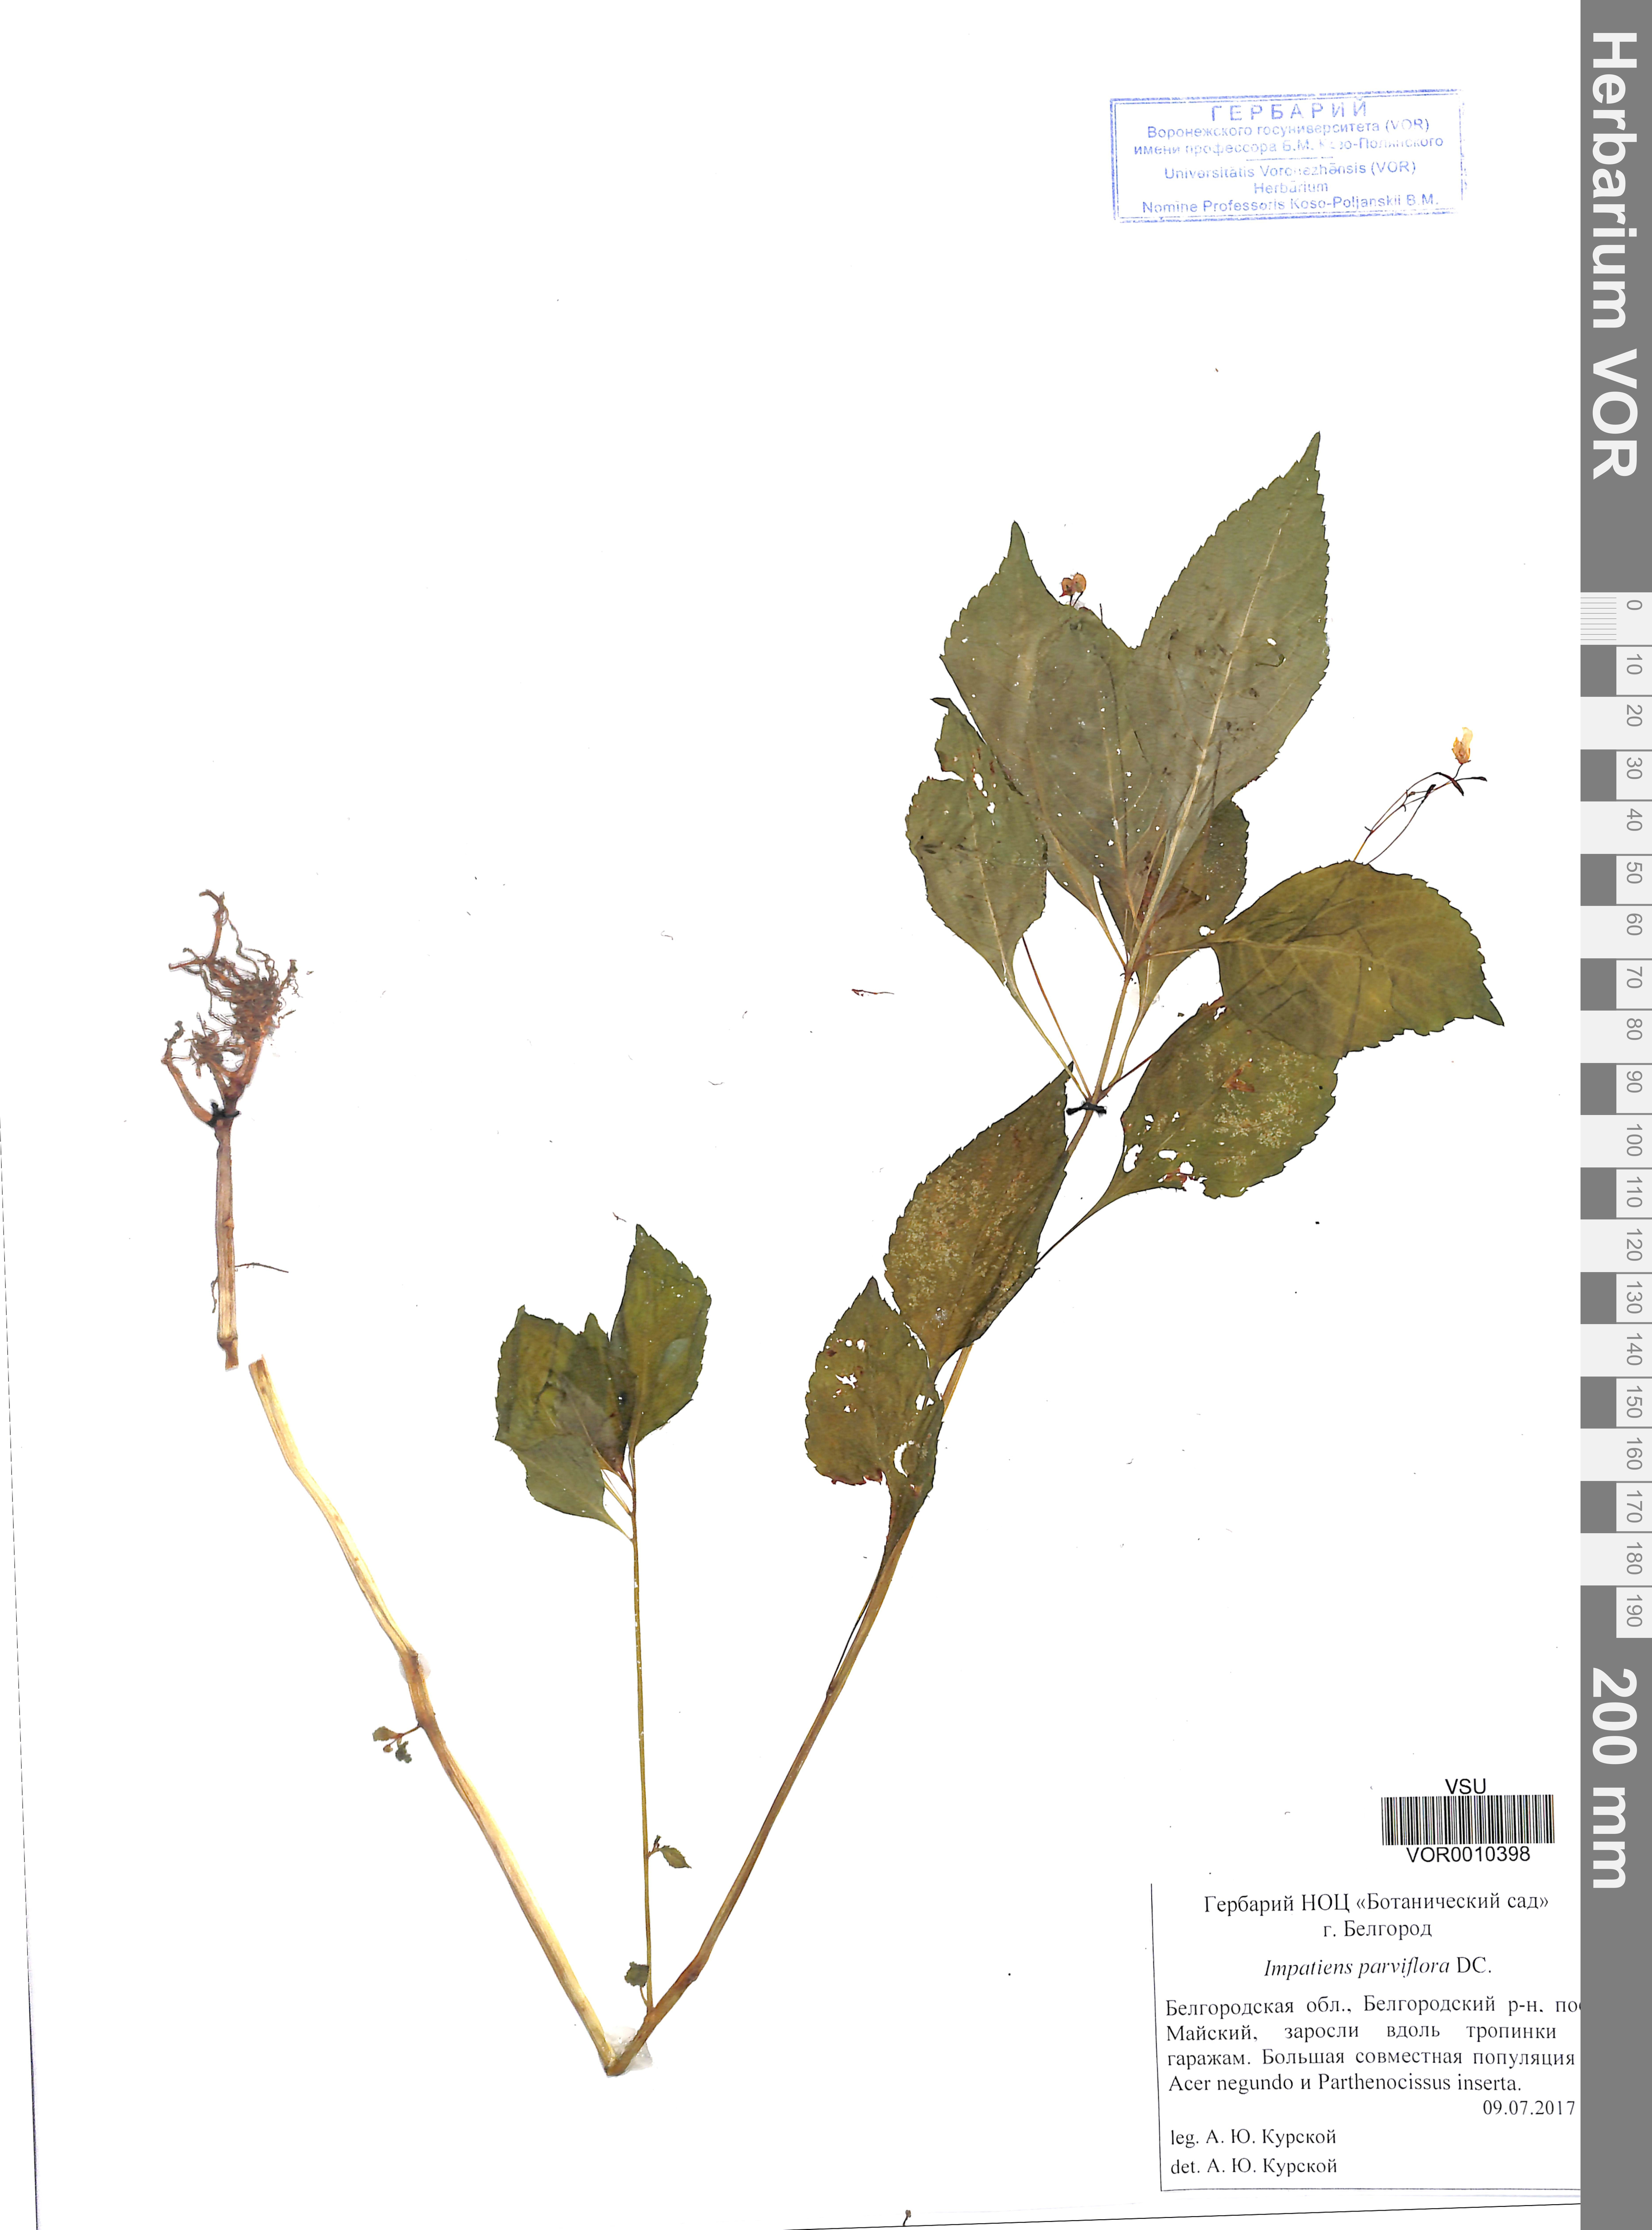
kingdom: Plantae
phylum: Tracheophyta
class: Magnoliopsida
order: Ericales
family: Balsaminaceae
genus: Impatiens
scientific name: Impatiens parviflora
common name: Small balsam
